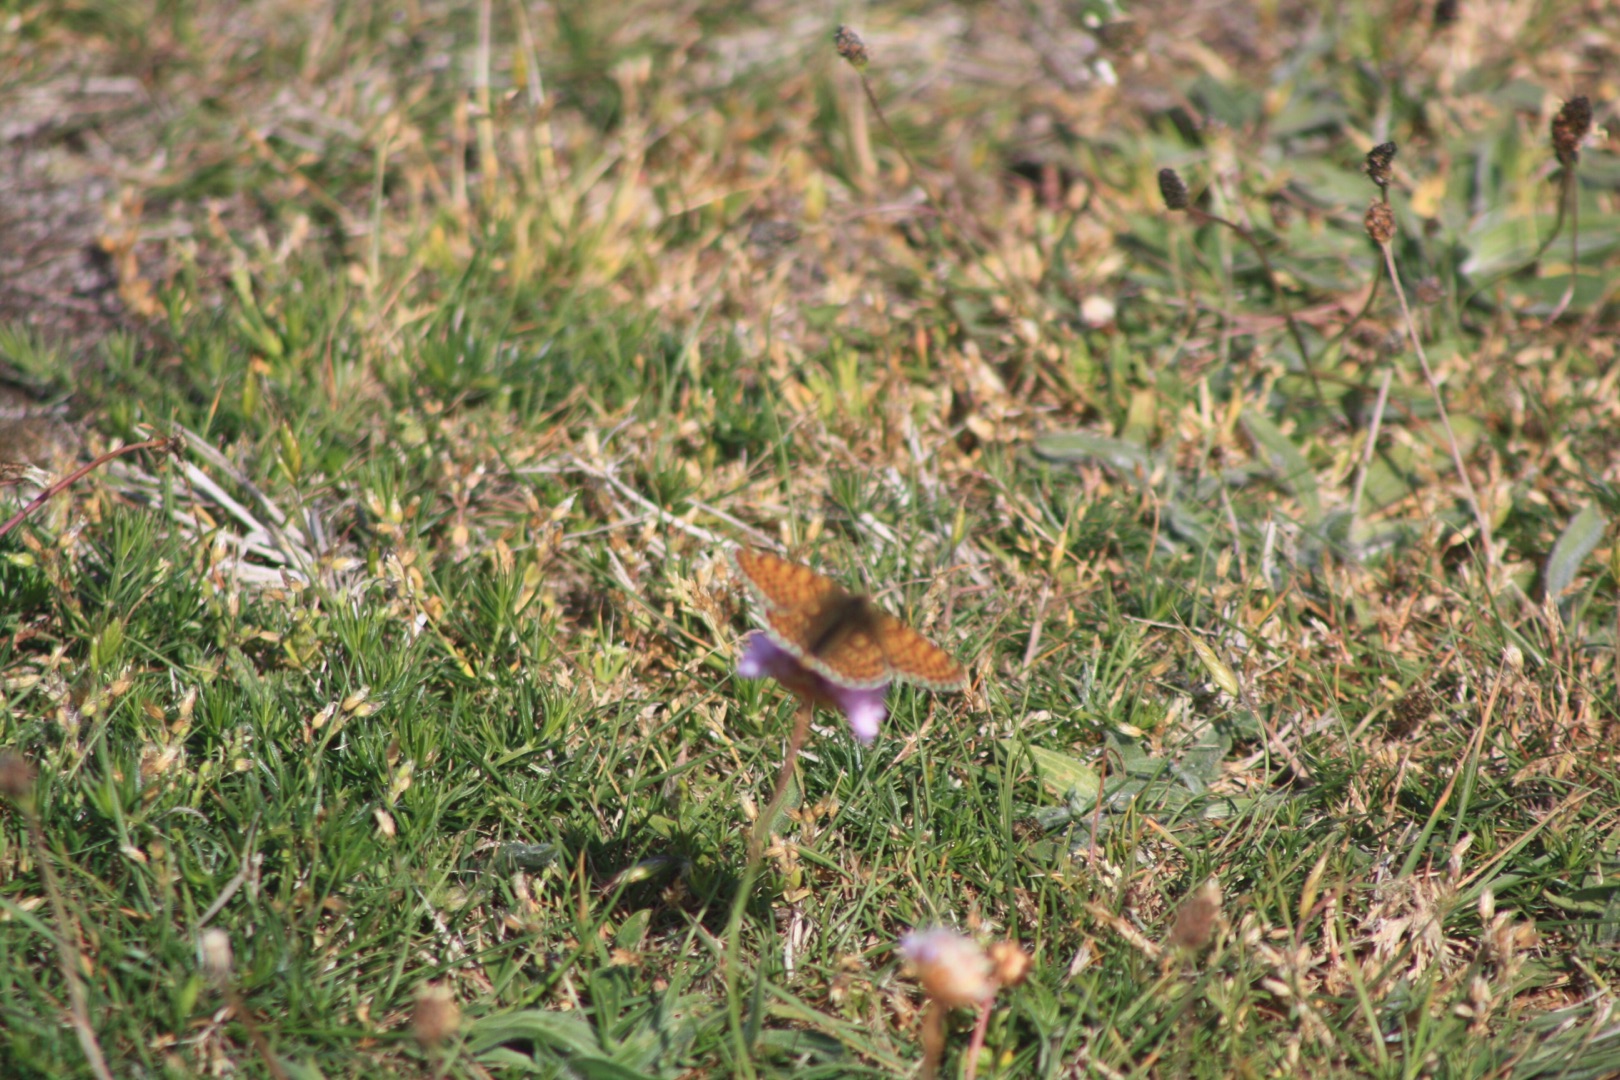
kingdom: Animalia
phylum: Arthropoda
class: Insecta
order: Lepidoptera
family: Nymphalidae
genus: Melitaea
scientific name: Melitaea cinxia
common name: Okkergul pletvinge
